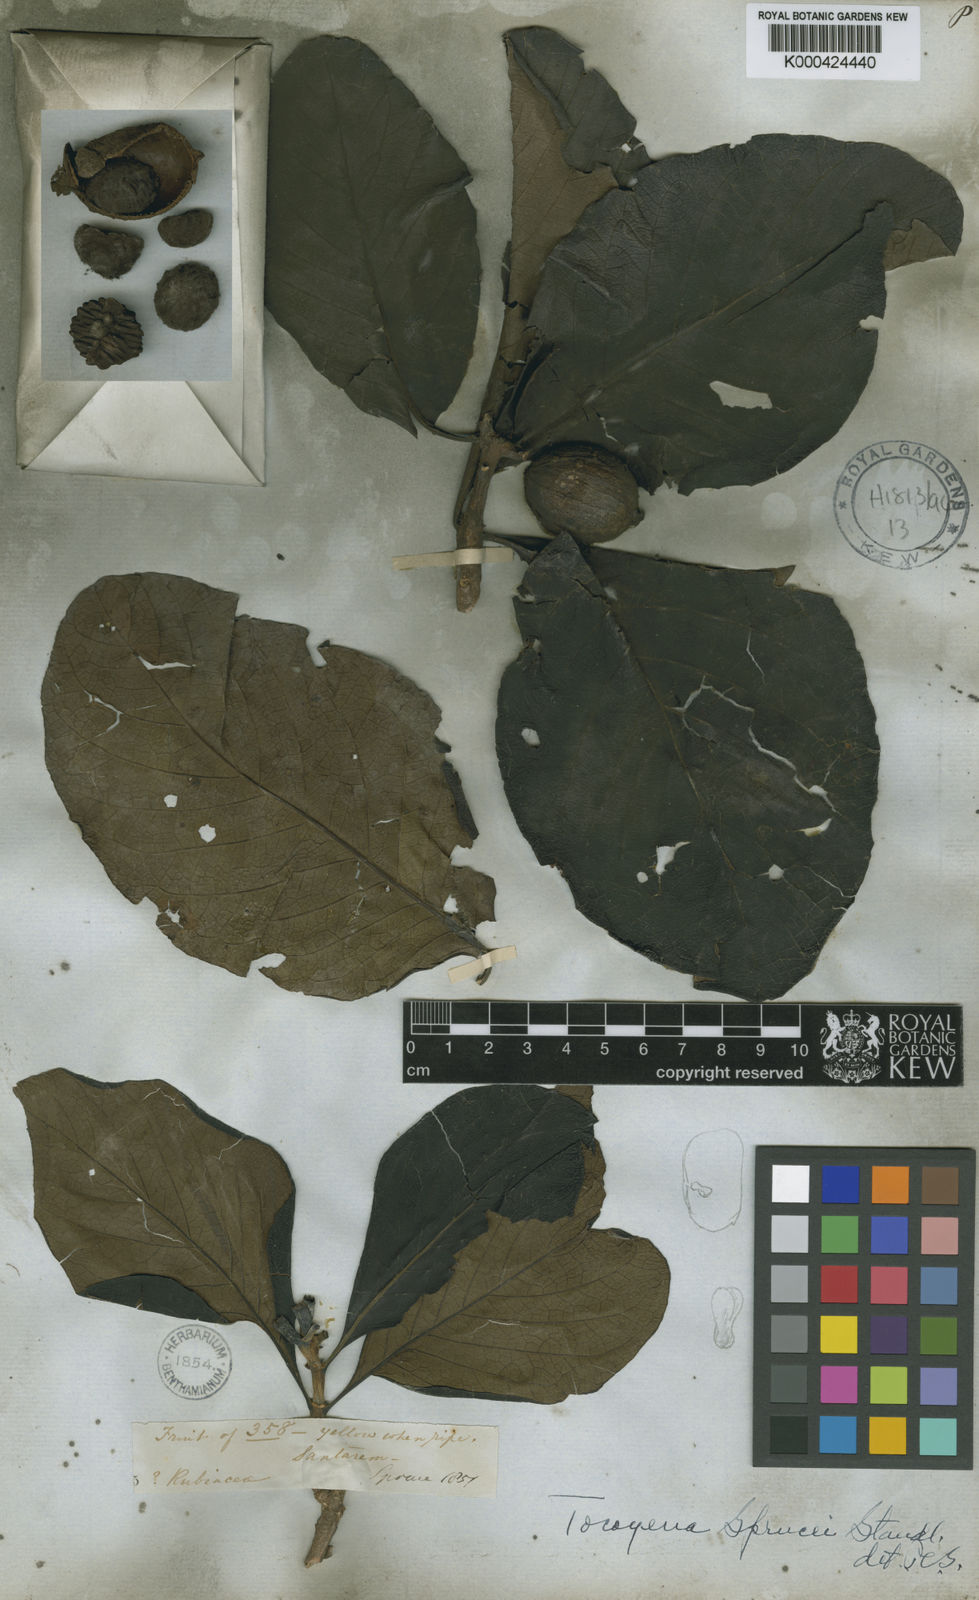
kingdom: Plantae
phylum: Tracheophyta
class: Magnoliopsida
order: Gentianales
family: Rubiaceae
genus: Tocoyena
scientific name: Tocoyena sprucei
